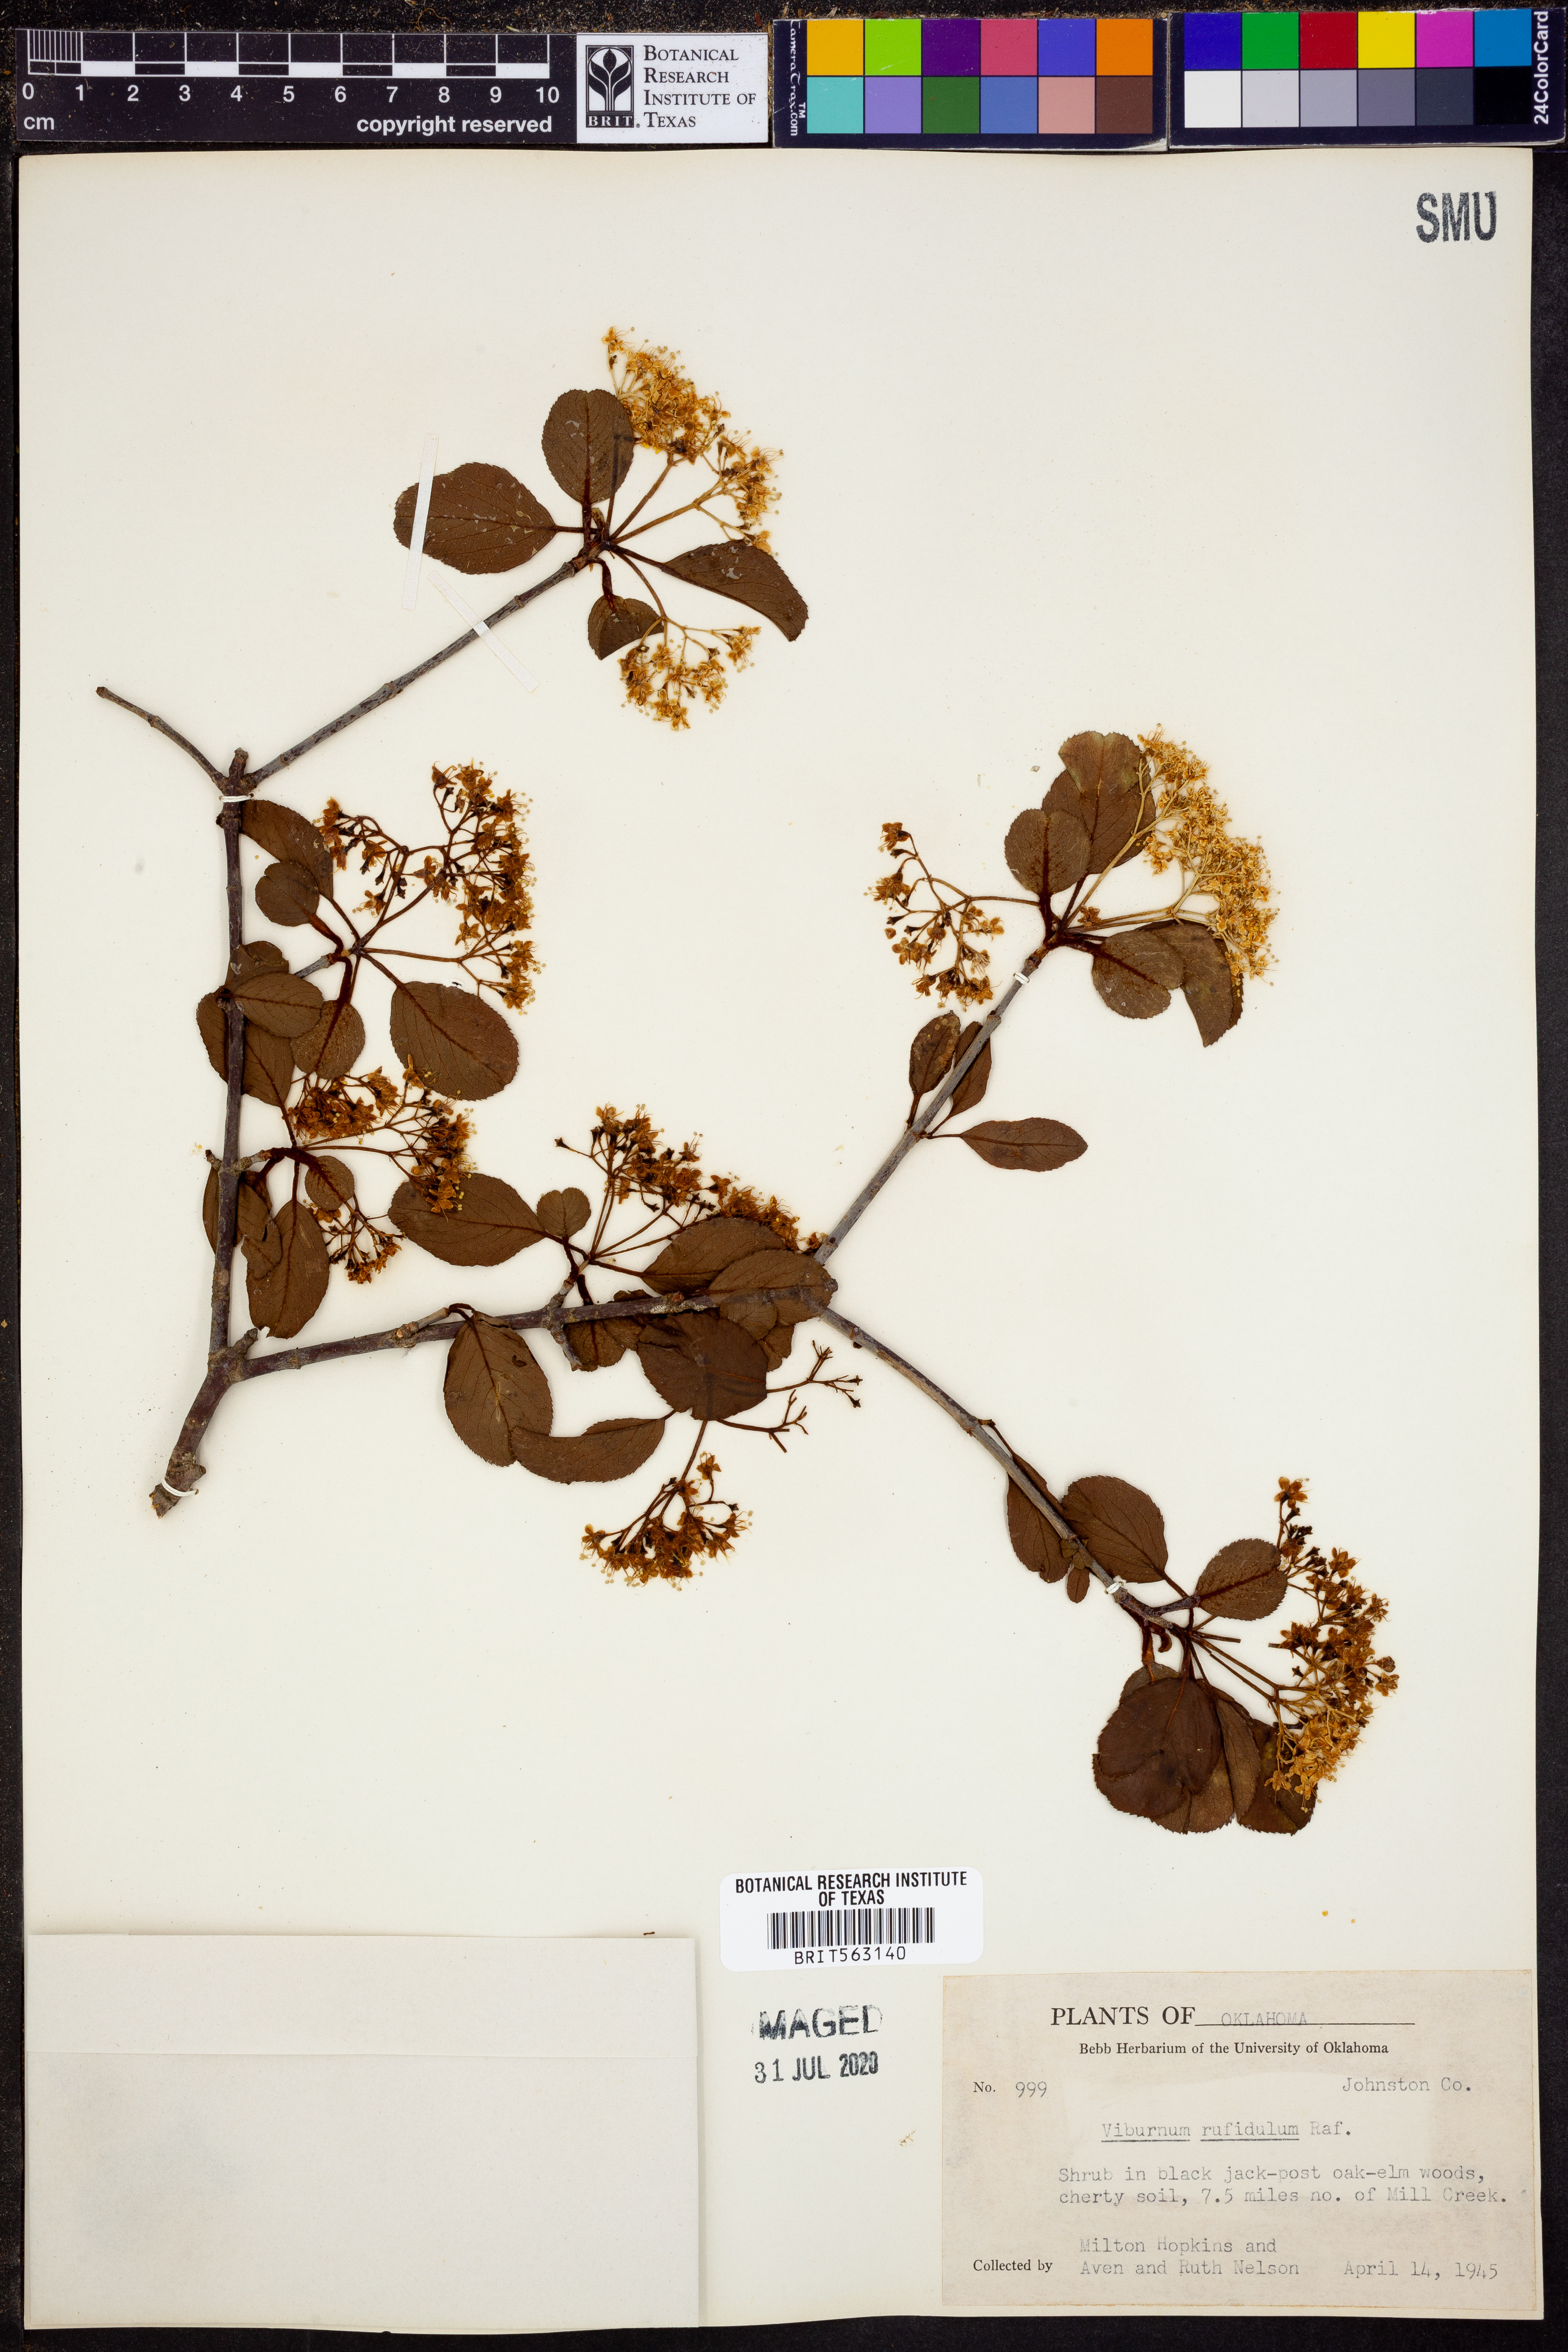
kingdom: Plantae
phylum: Tracheophyta
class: Magnoliopsida
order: Dipsacales
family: Viburnaceae
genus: Viburnum
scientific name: Viburnum rufidulum
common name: Blue haw
